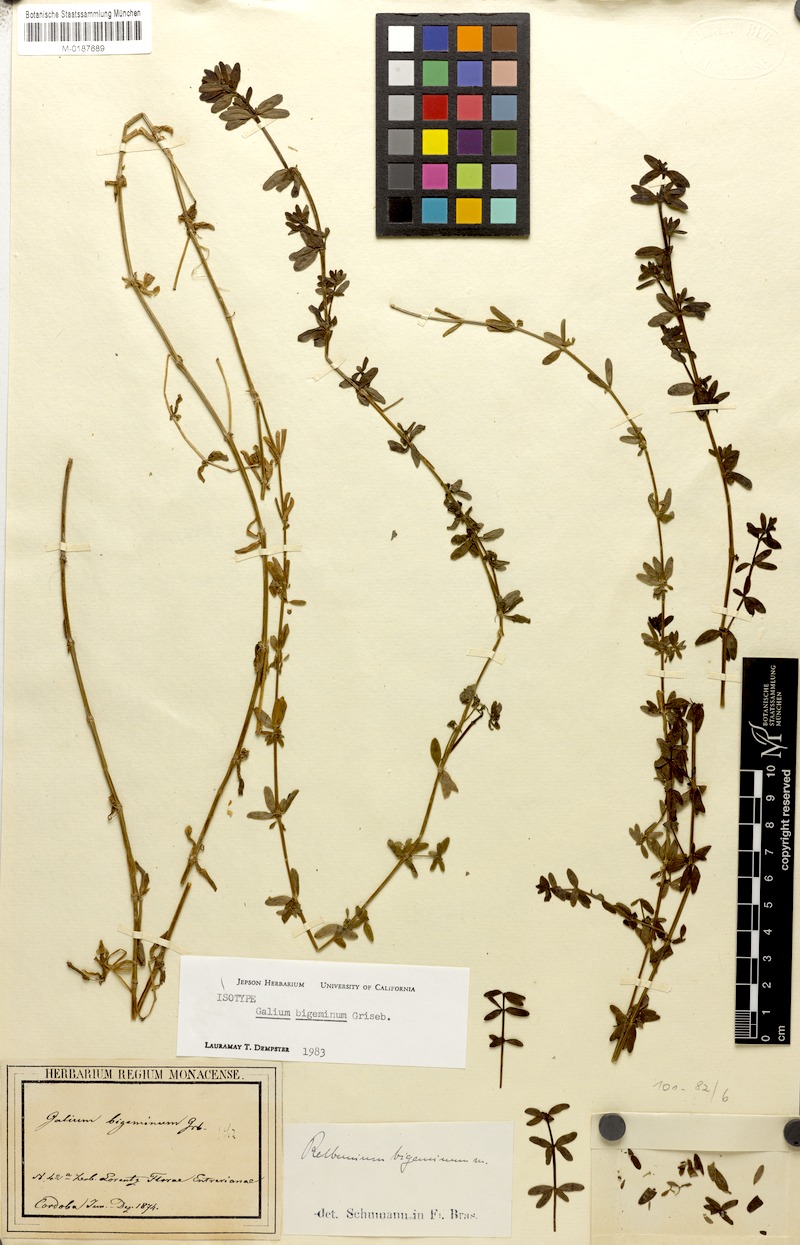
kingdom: Plantae
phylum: Tracheophyta
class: Magnoliopsida
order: Gentianales
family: Rubiaceae
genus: Galium
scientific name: Galium bigeminum
